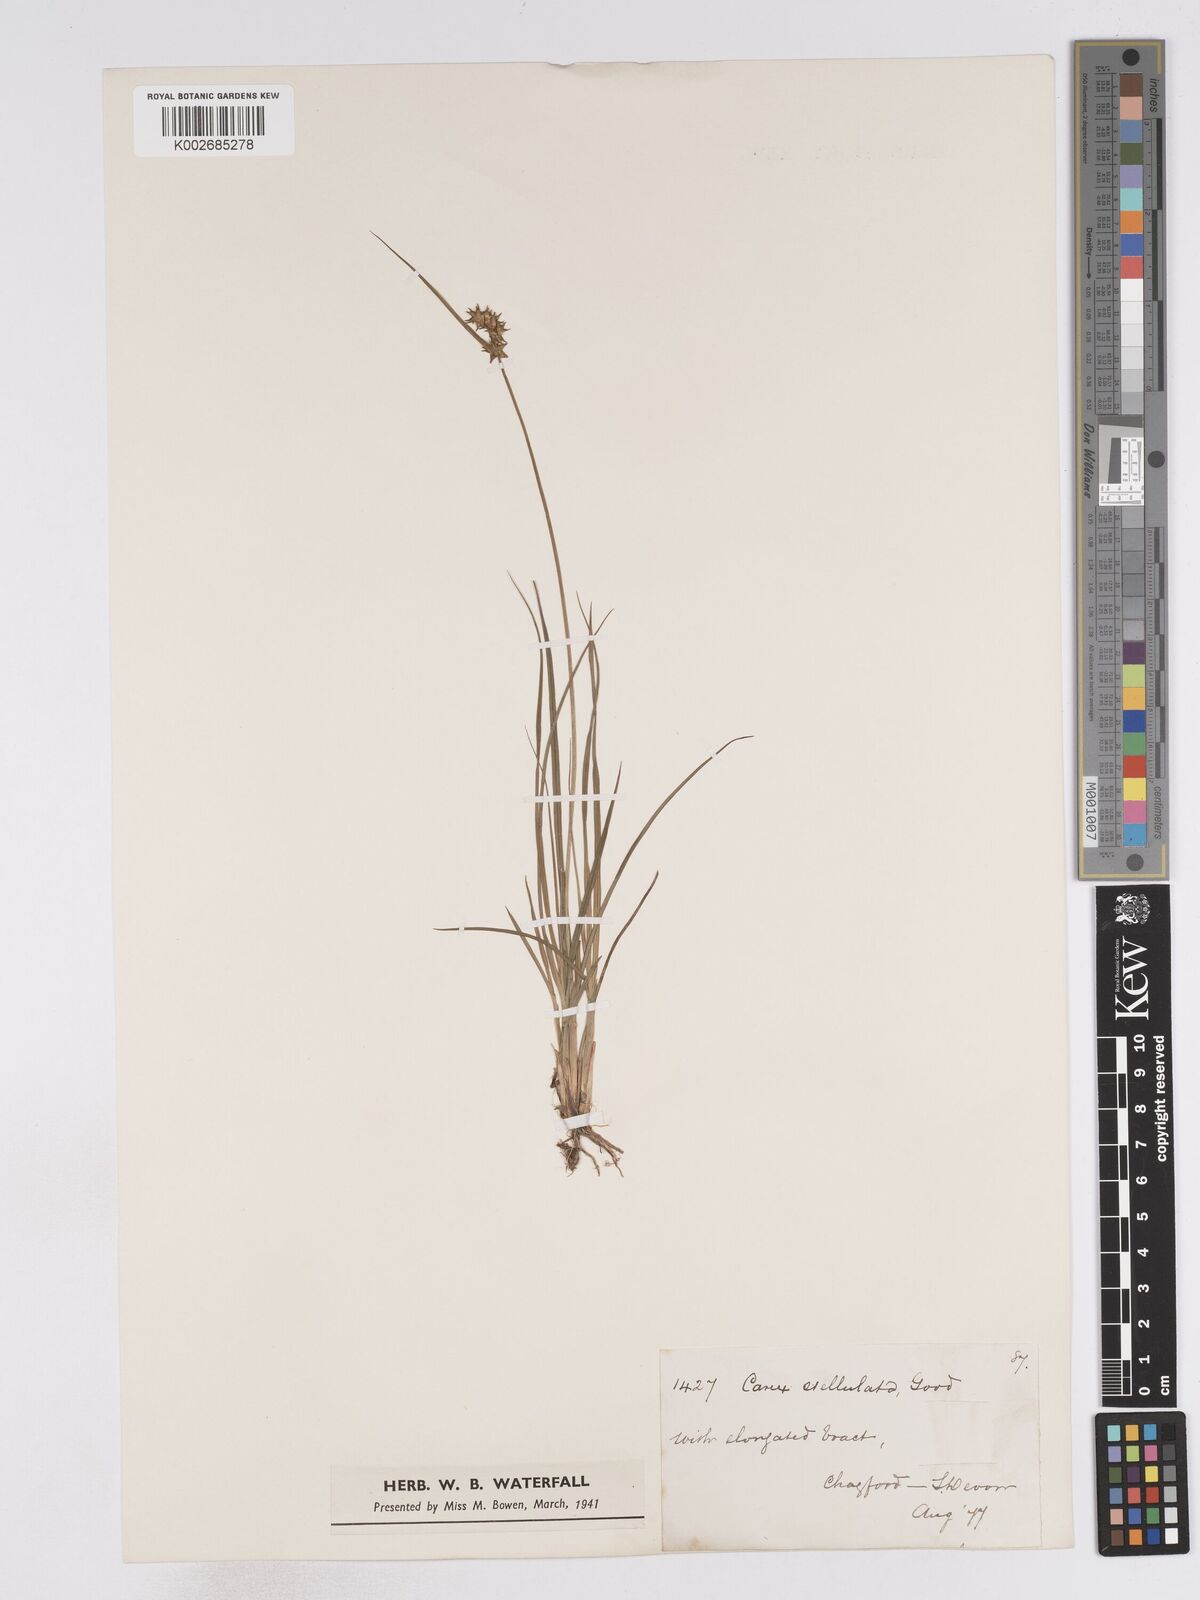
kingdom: Plantae
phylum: Tracheophyta
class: Liliopsida
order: Poales
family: Cyperaceae
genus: Carex
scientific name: Carex echinata
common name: Star sedge
